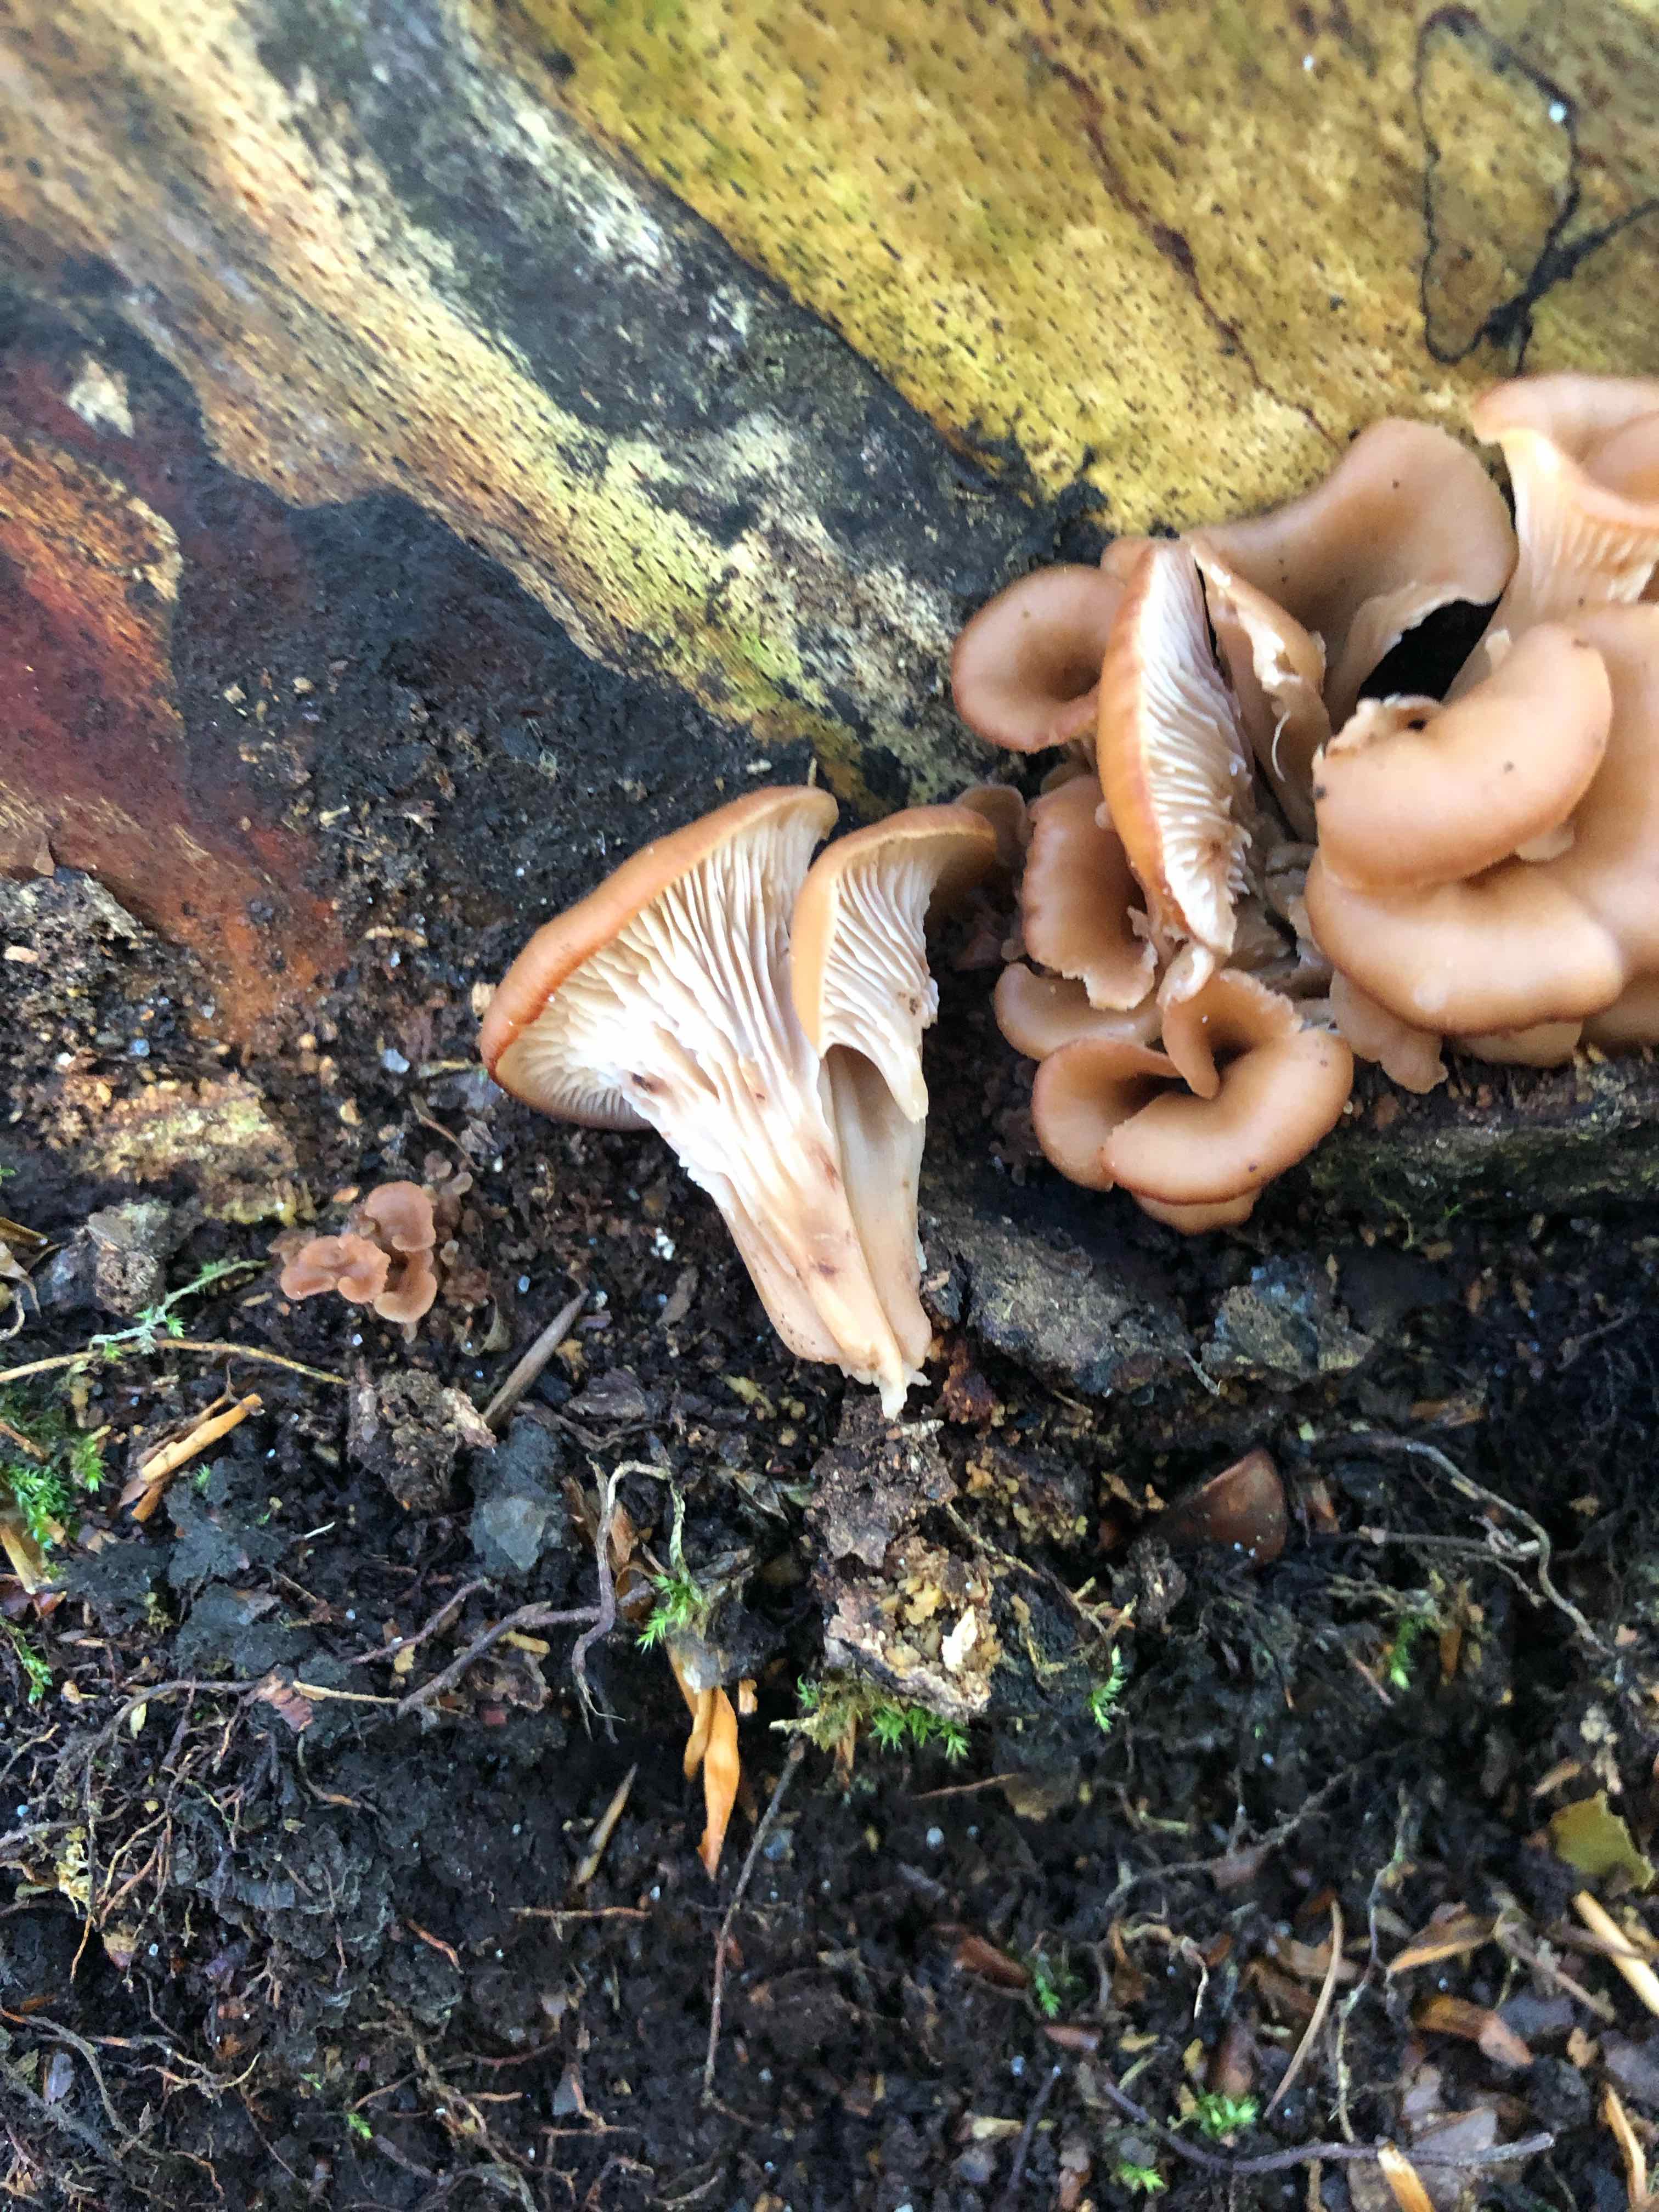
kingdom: Fungi
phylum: Basidiomycota
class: Agaricomycetes
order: Russulales
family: Auriscalpiaceae
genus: Lentinellus
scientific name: Lentinellus cochleatus
